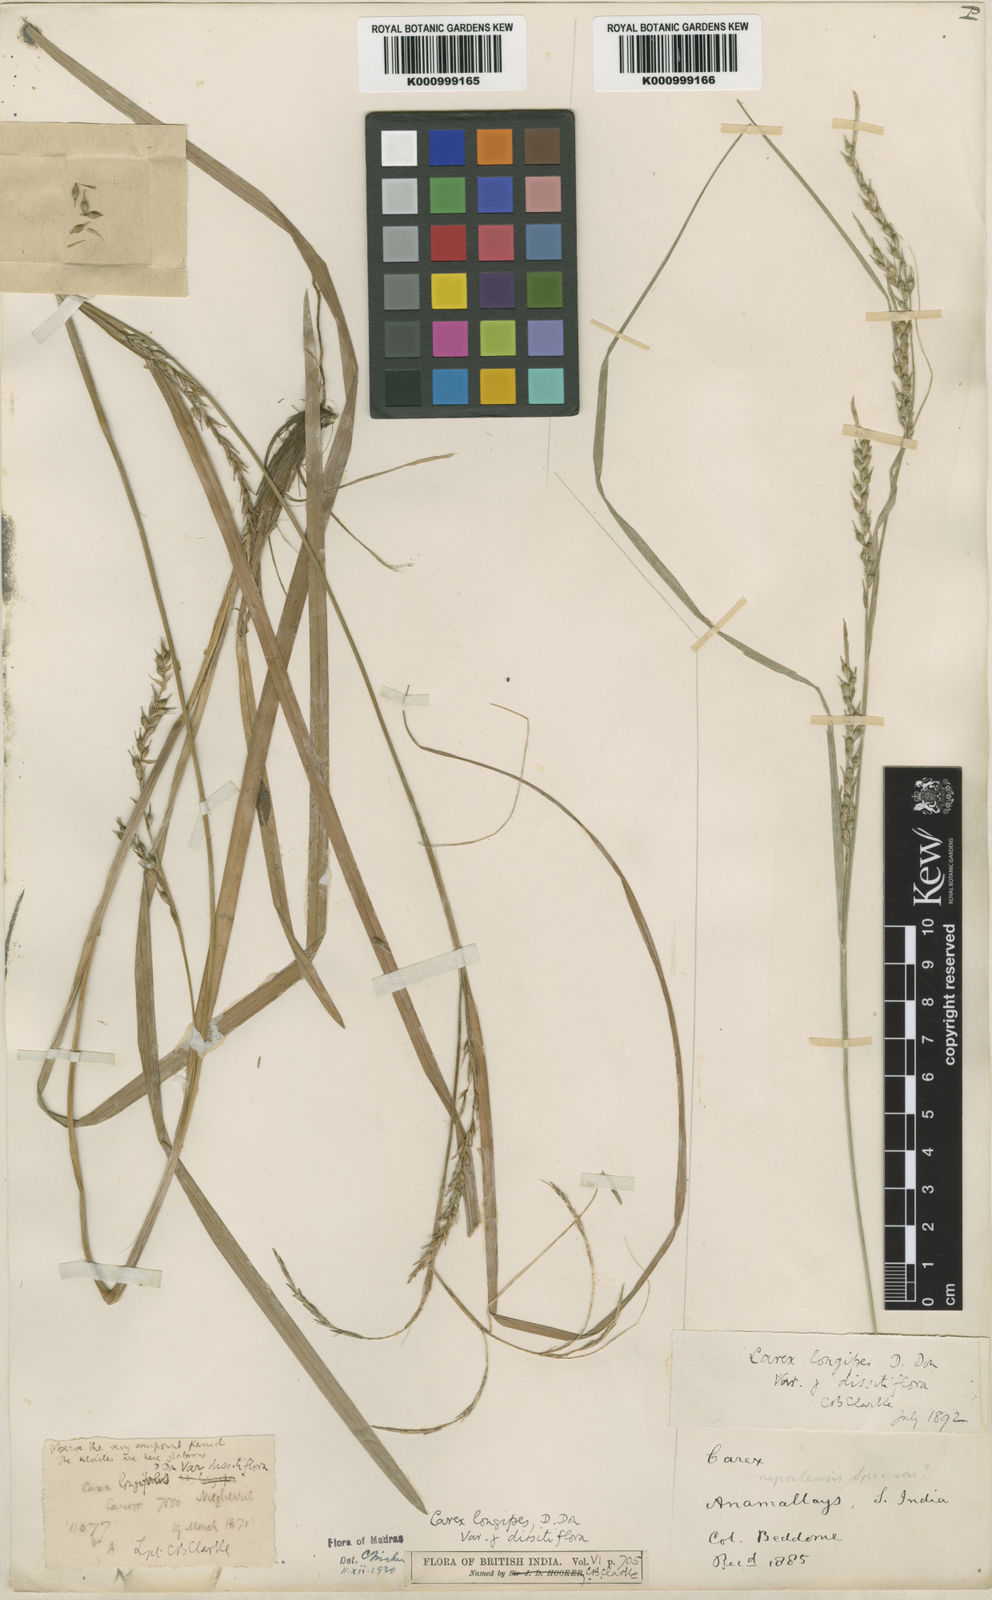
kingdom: Plantae
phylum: Tracheophyta
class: Liliopsida
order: Poales
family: Cyperaceae
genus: Carex
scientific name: Carex longipes
